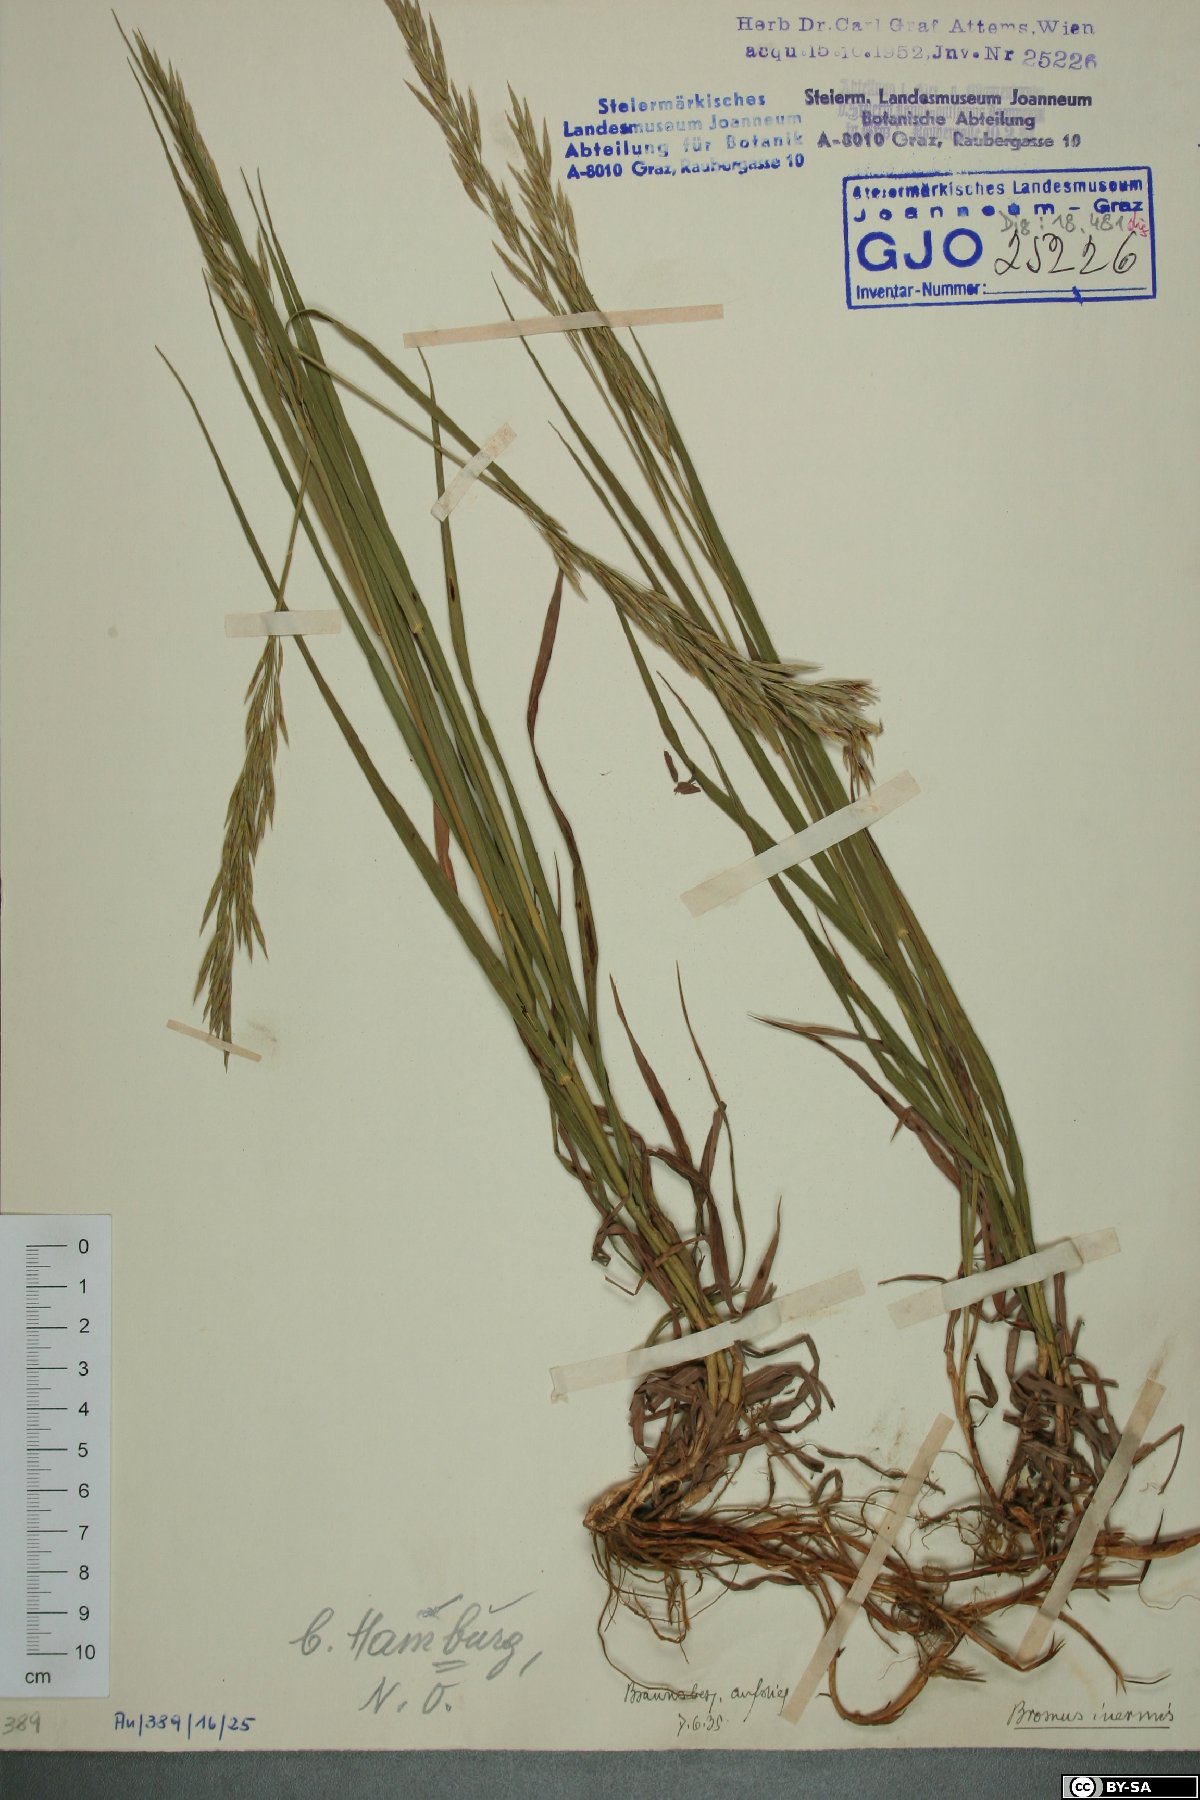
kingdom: Plantae
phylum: Tracheophyta
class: Liliopsida
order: Poales
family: Poaceae
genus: Bromus
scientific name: Bromus inermis
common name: Smooth brome
